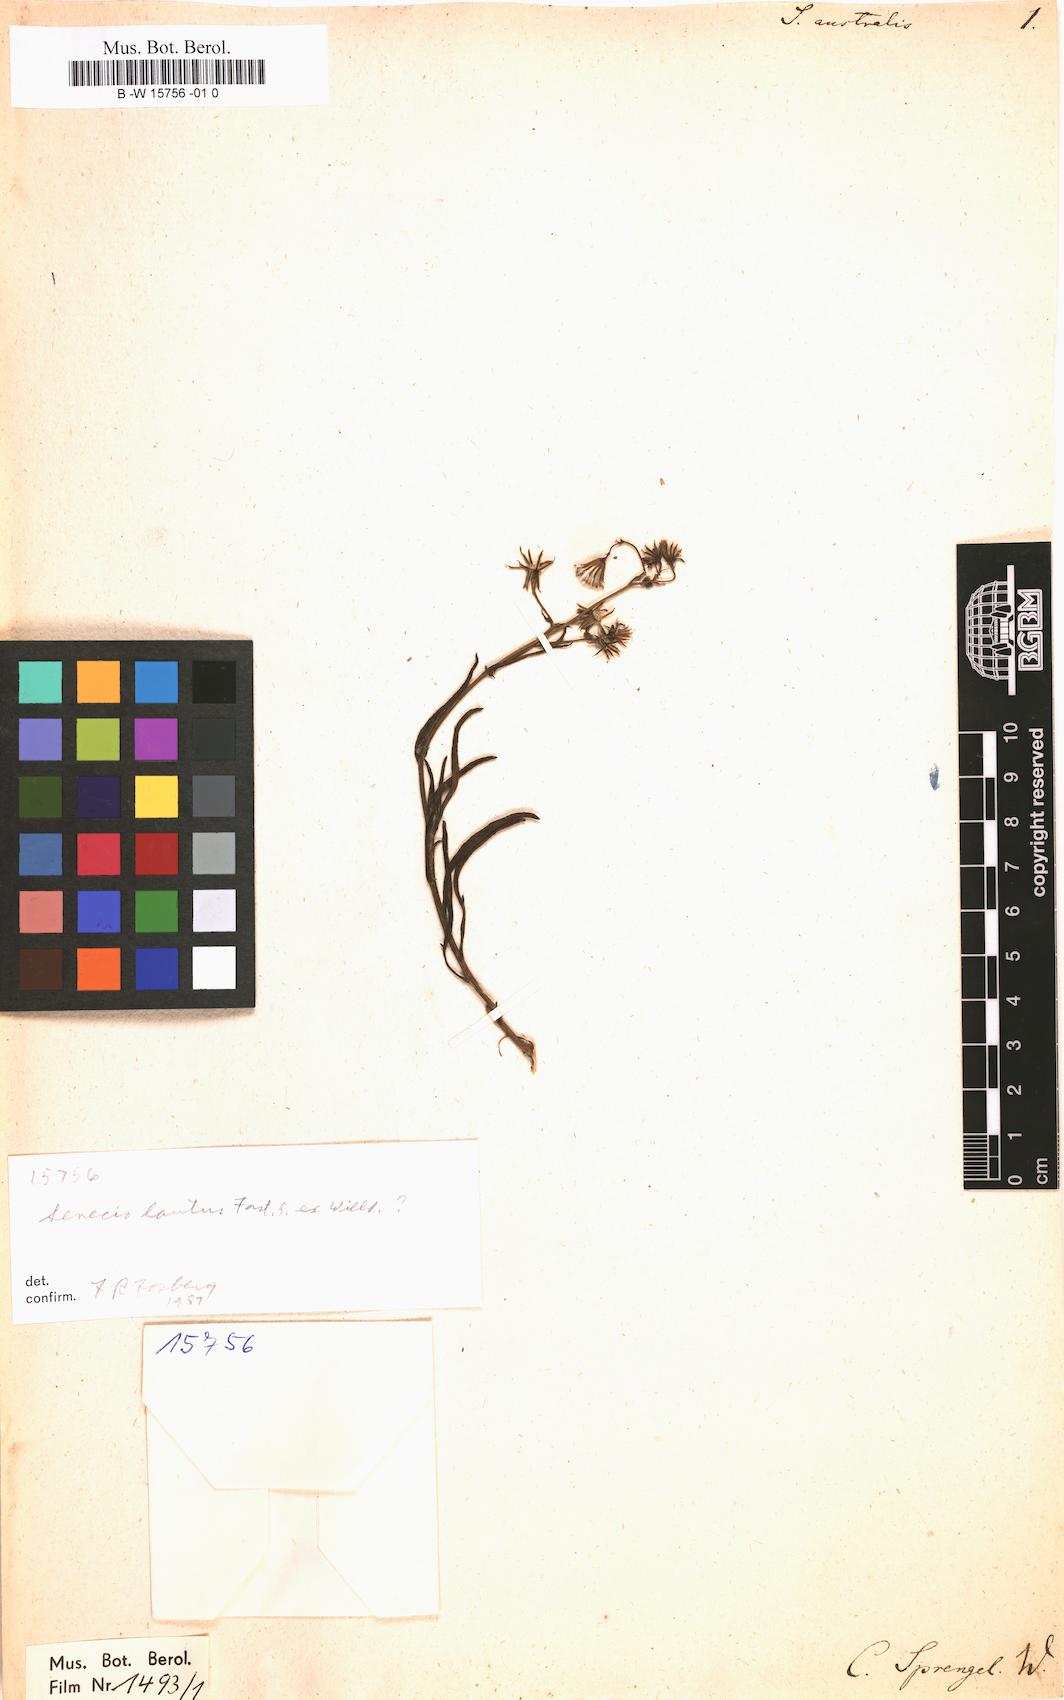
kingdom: Plantae
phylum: Tracheophyta
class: Magnoliopsida
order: Asterales
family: Asteraceae
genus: Senecio
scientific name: Senecio australis
